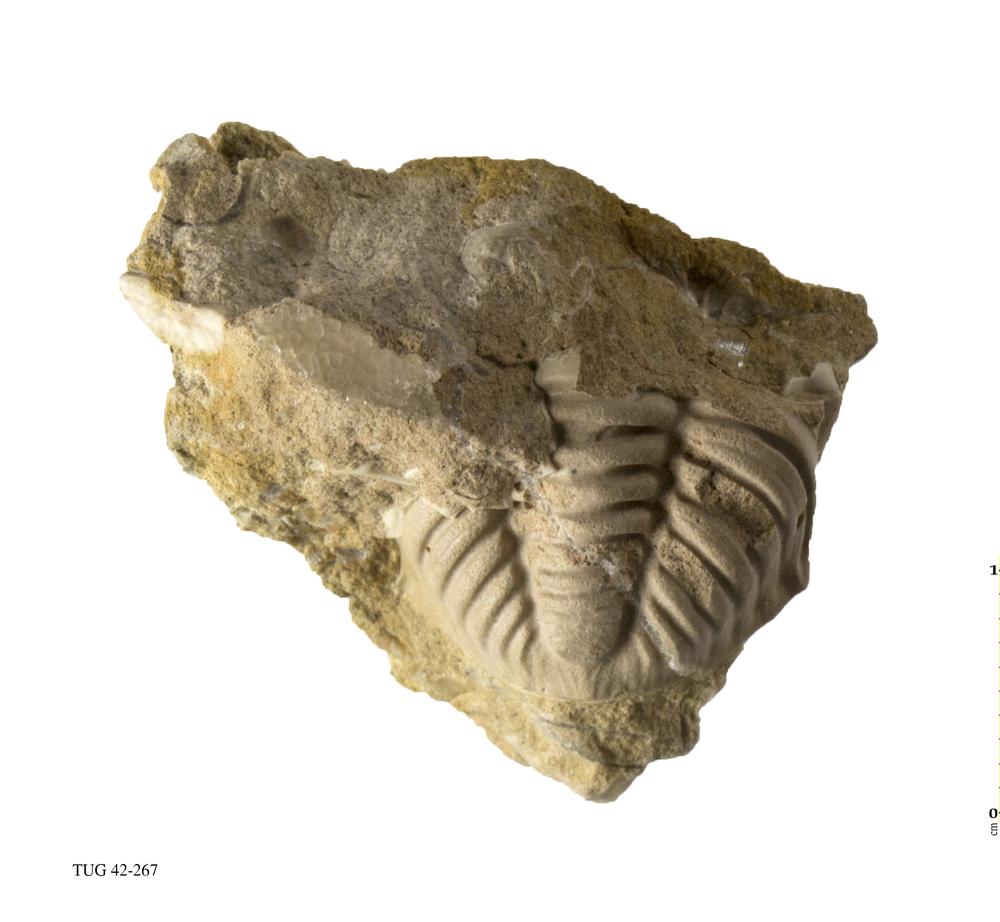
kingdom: Animalia
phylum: Arthropoda
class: Trilobita
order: Phacopida
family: Phacopidae
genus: Phacops
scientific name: Phacops
